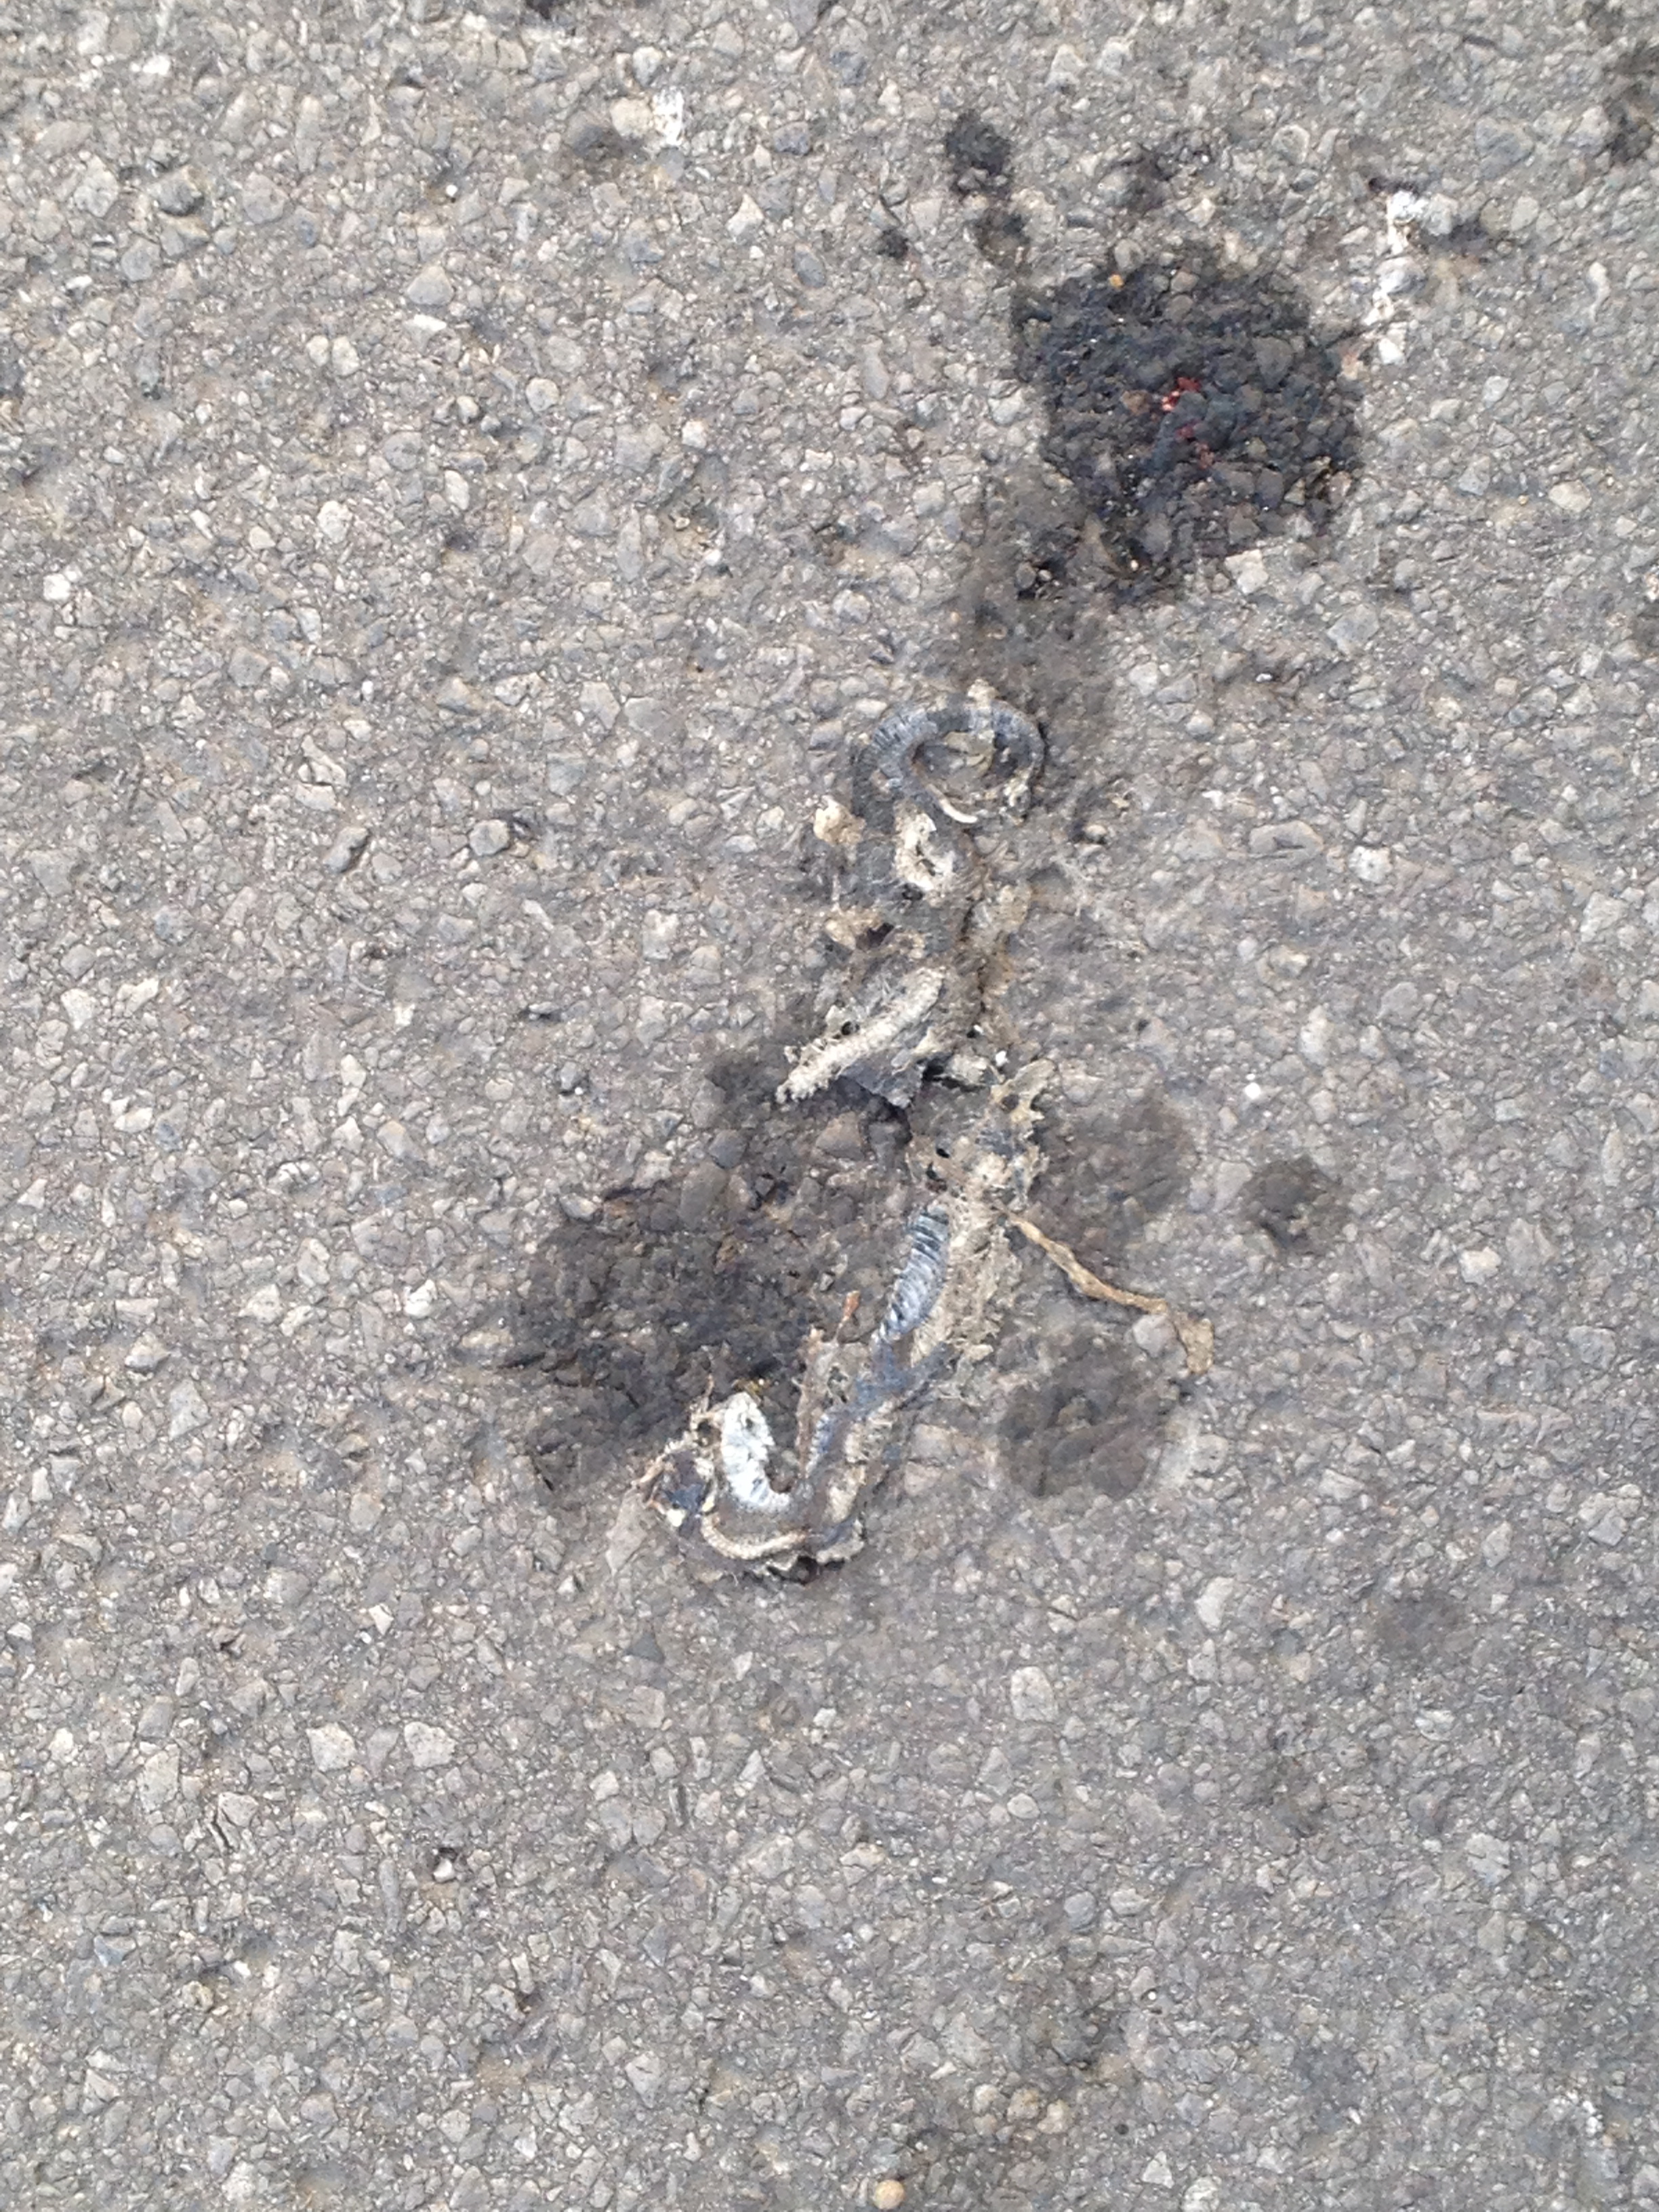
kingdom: Animalia
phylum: Chordata
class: Squamata
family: Colubridae
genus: Natrix
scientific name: Natrix natrix
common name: Grass snake
